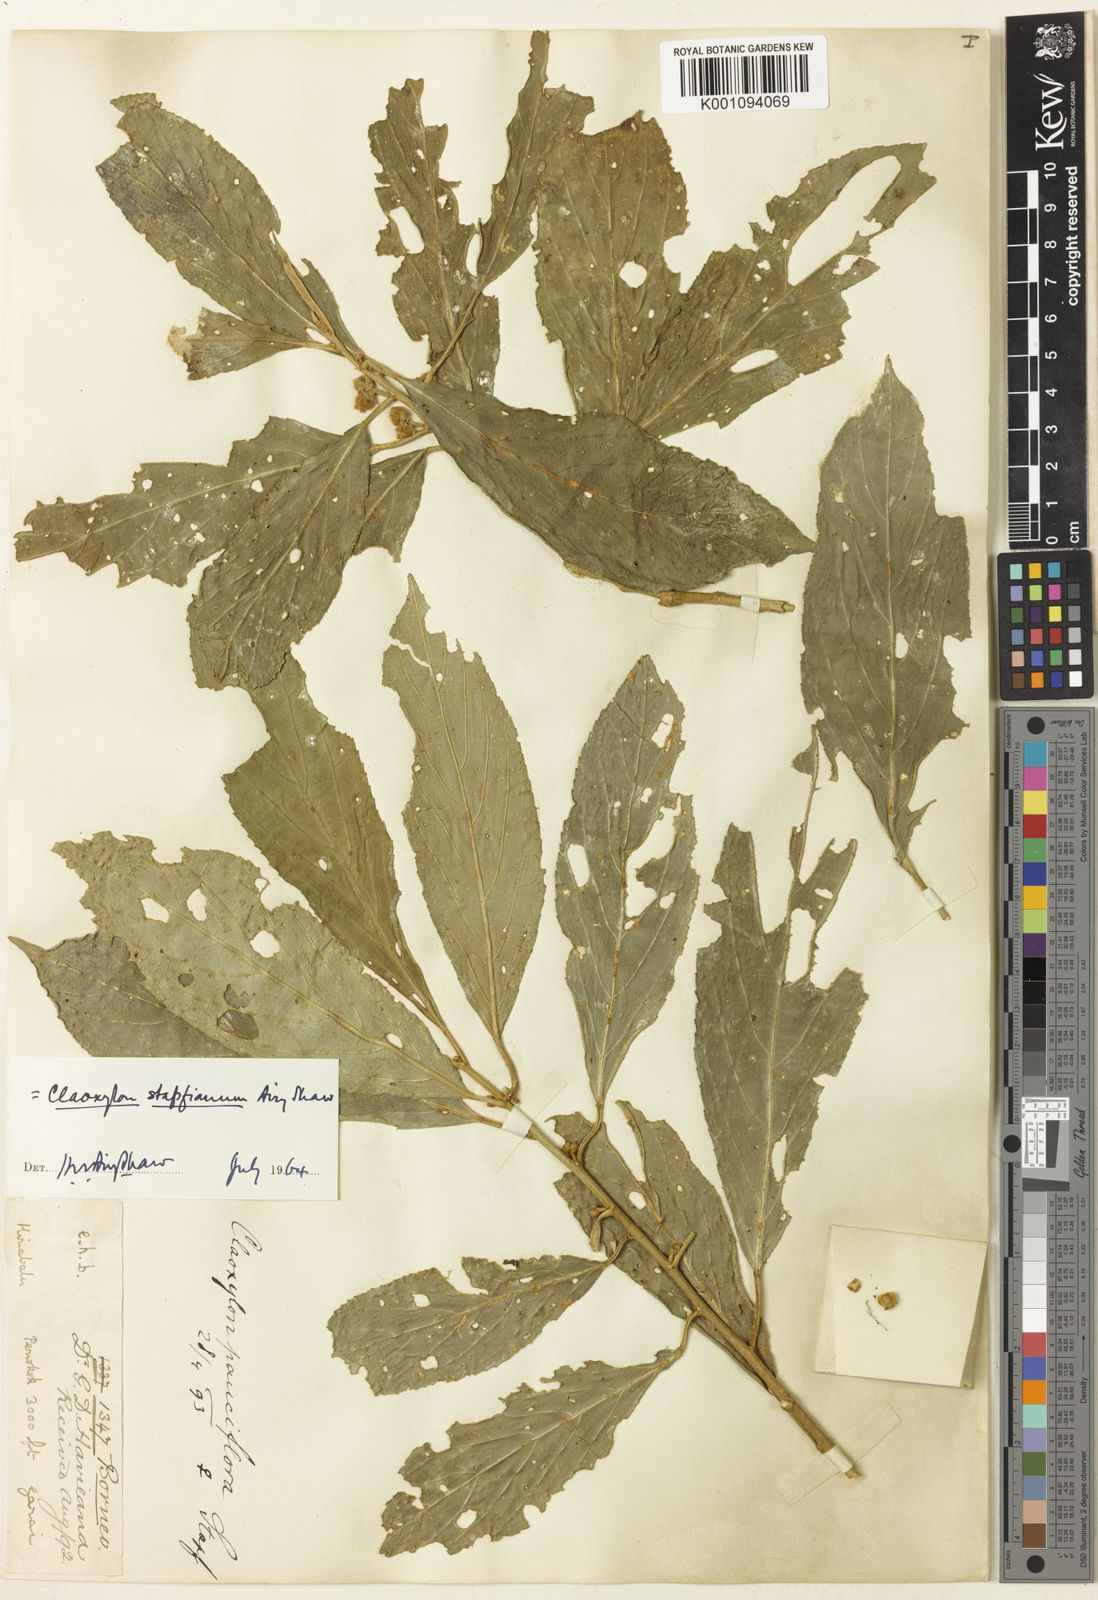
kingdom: Plantae
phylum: Tracheophyta
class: Magnoliopsida
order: Malpighiales
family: Euphorbiaceae
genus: Claoxylon
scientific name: Claoxylon stapfianum
